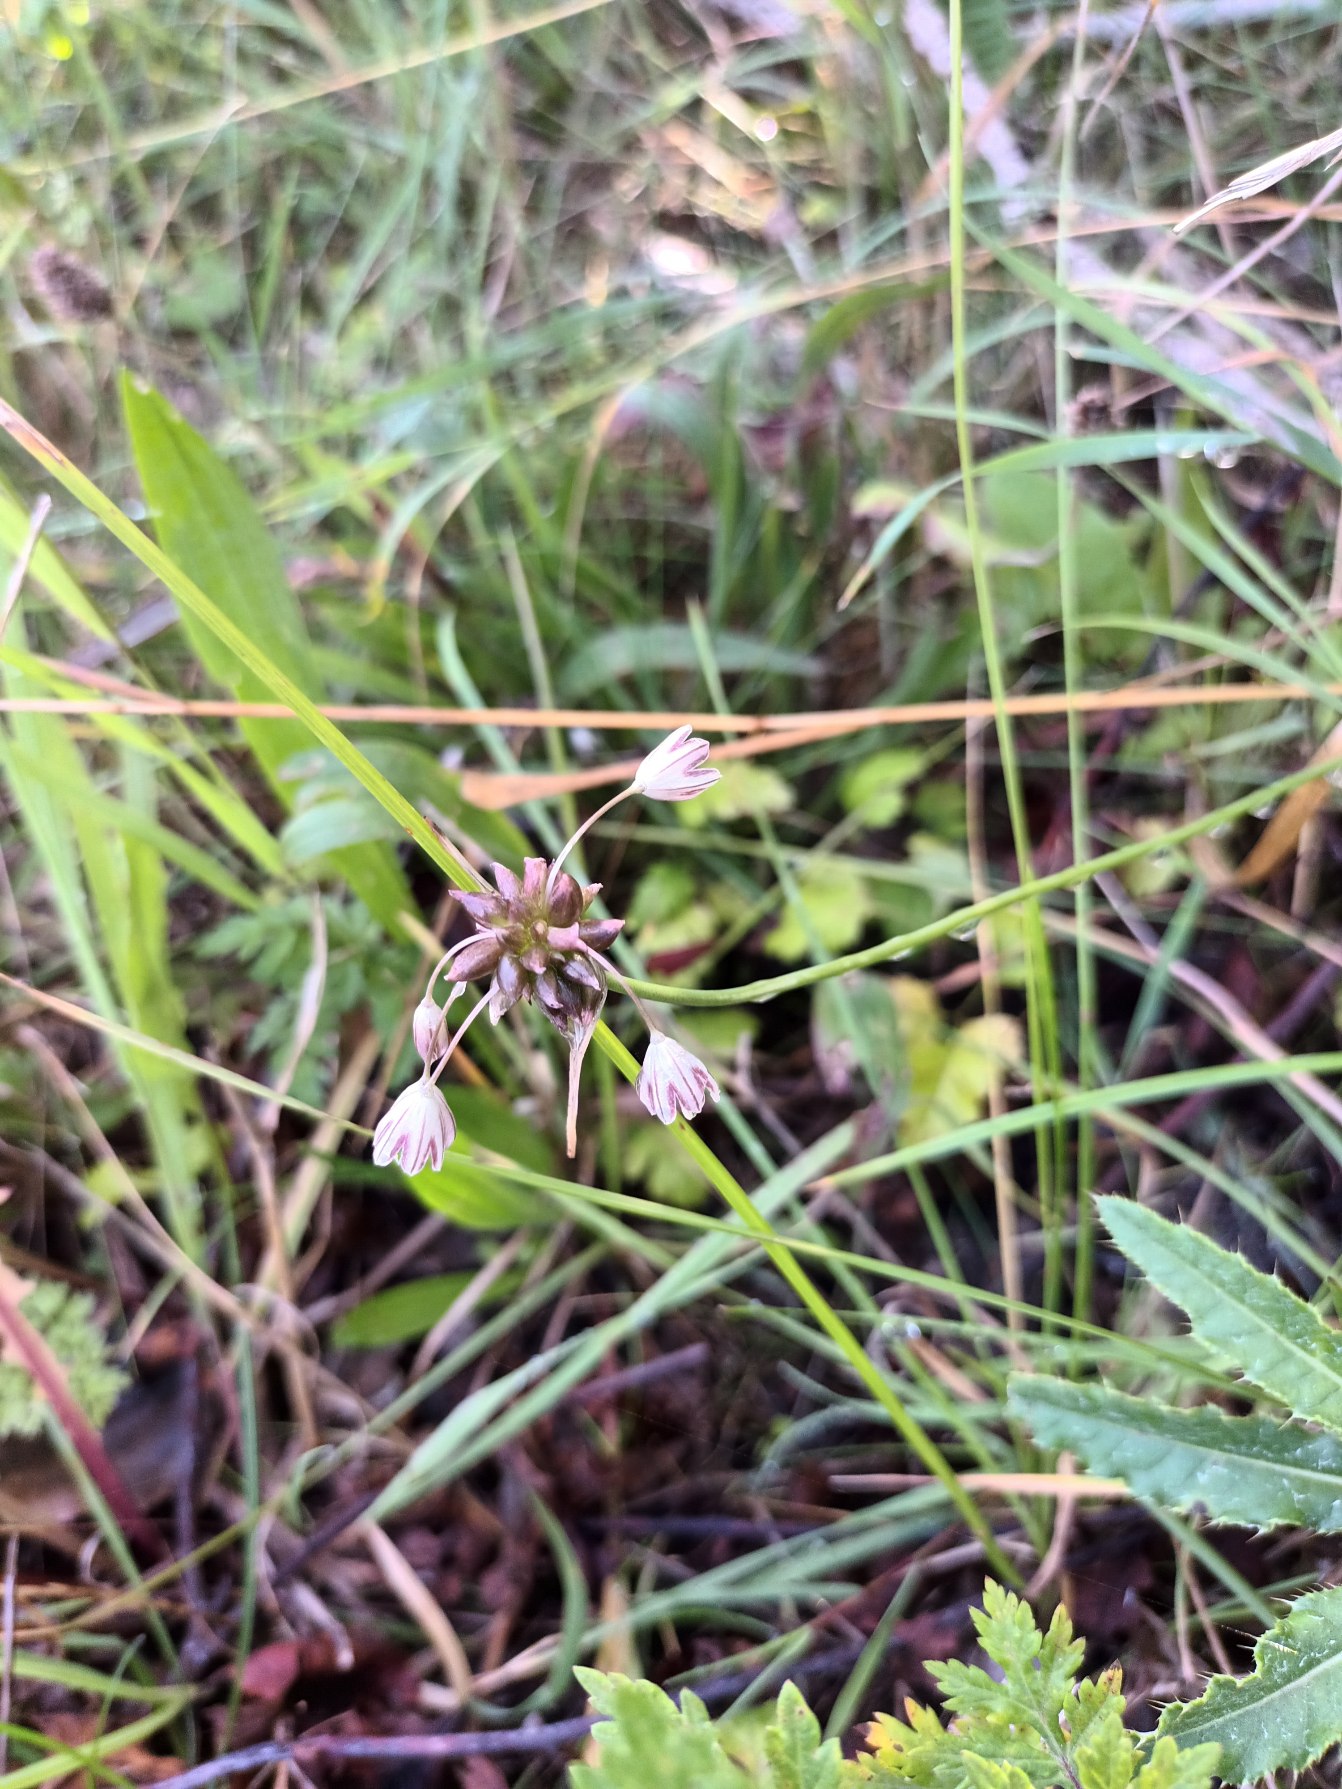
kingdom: Plantae
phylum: Tracheophyta
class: Liliopsida
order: Asparagales
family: Amaryllidaceae
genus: Allium
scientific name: Allium oleraceum
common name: Vild løg
